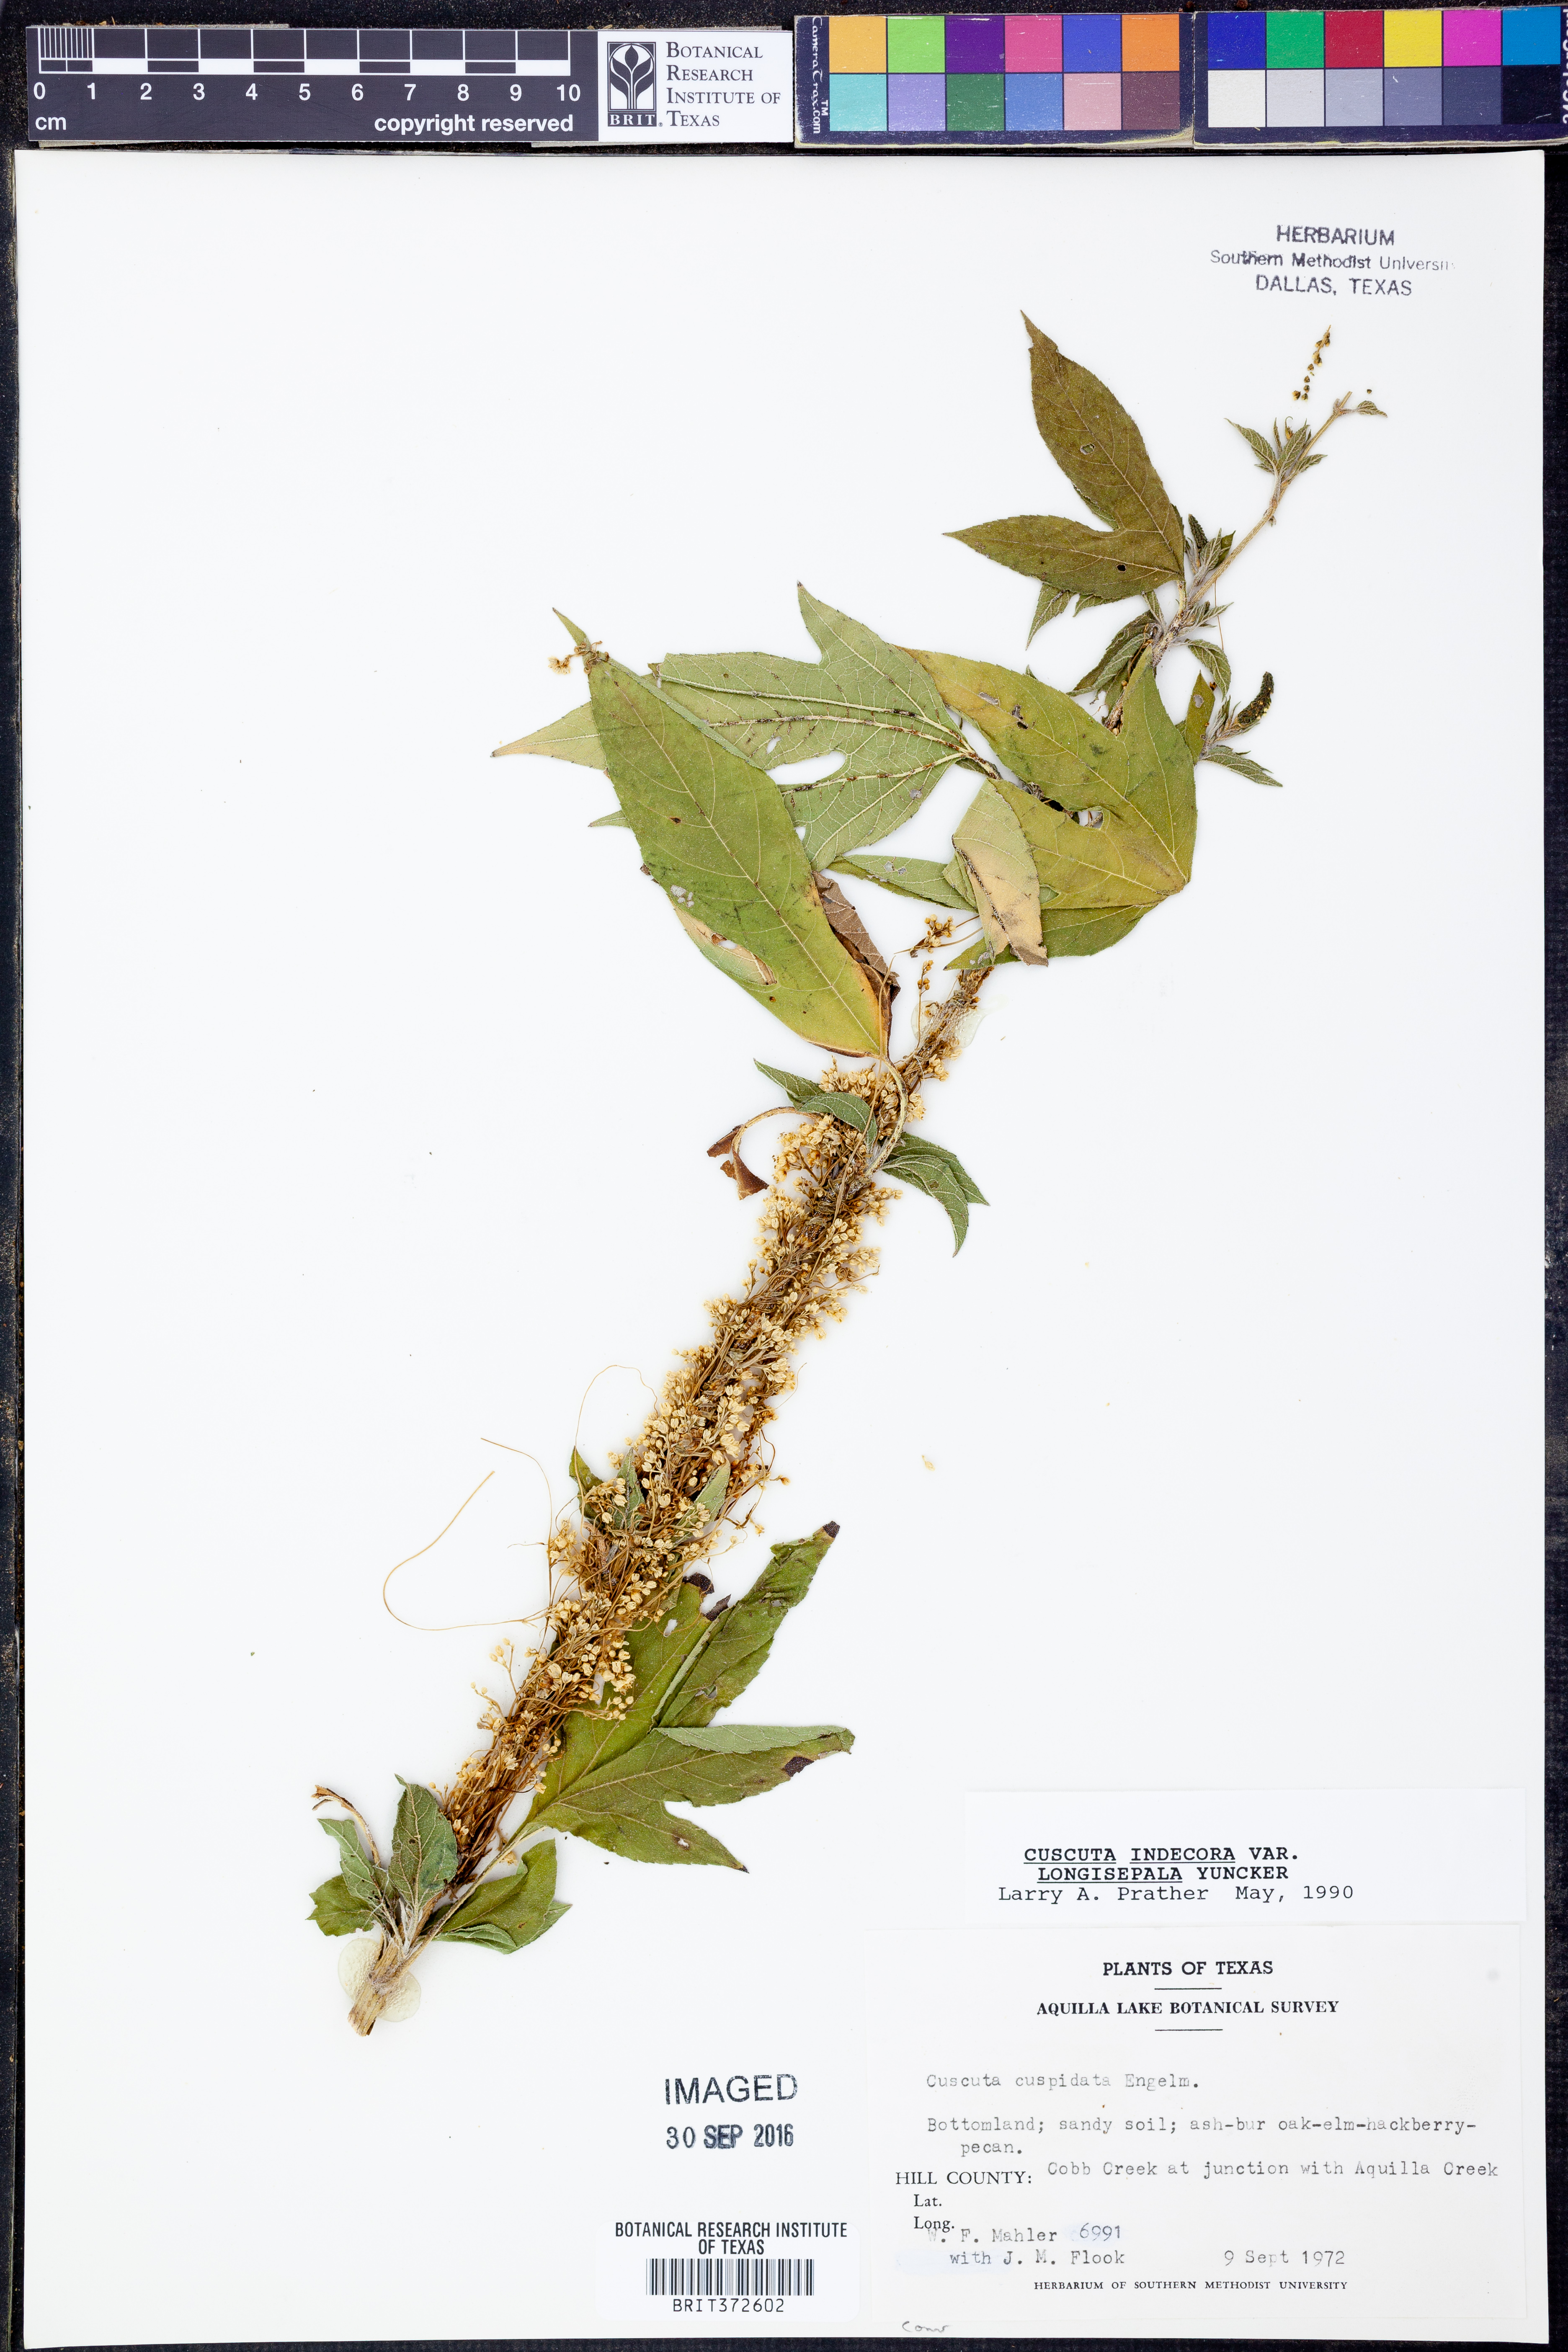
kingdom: Plantae
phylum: Tracheophyta
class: Magnoliopsida
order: Solanales
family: Convolvulaceae
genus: Cuscuta
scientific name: Cuscuta indecora
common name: Large-seed dodder
